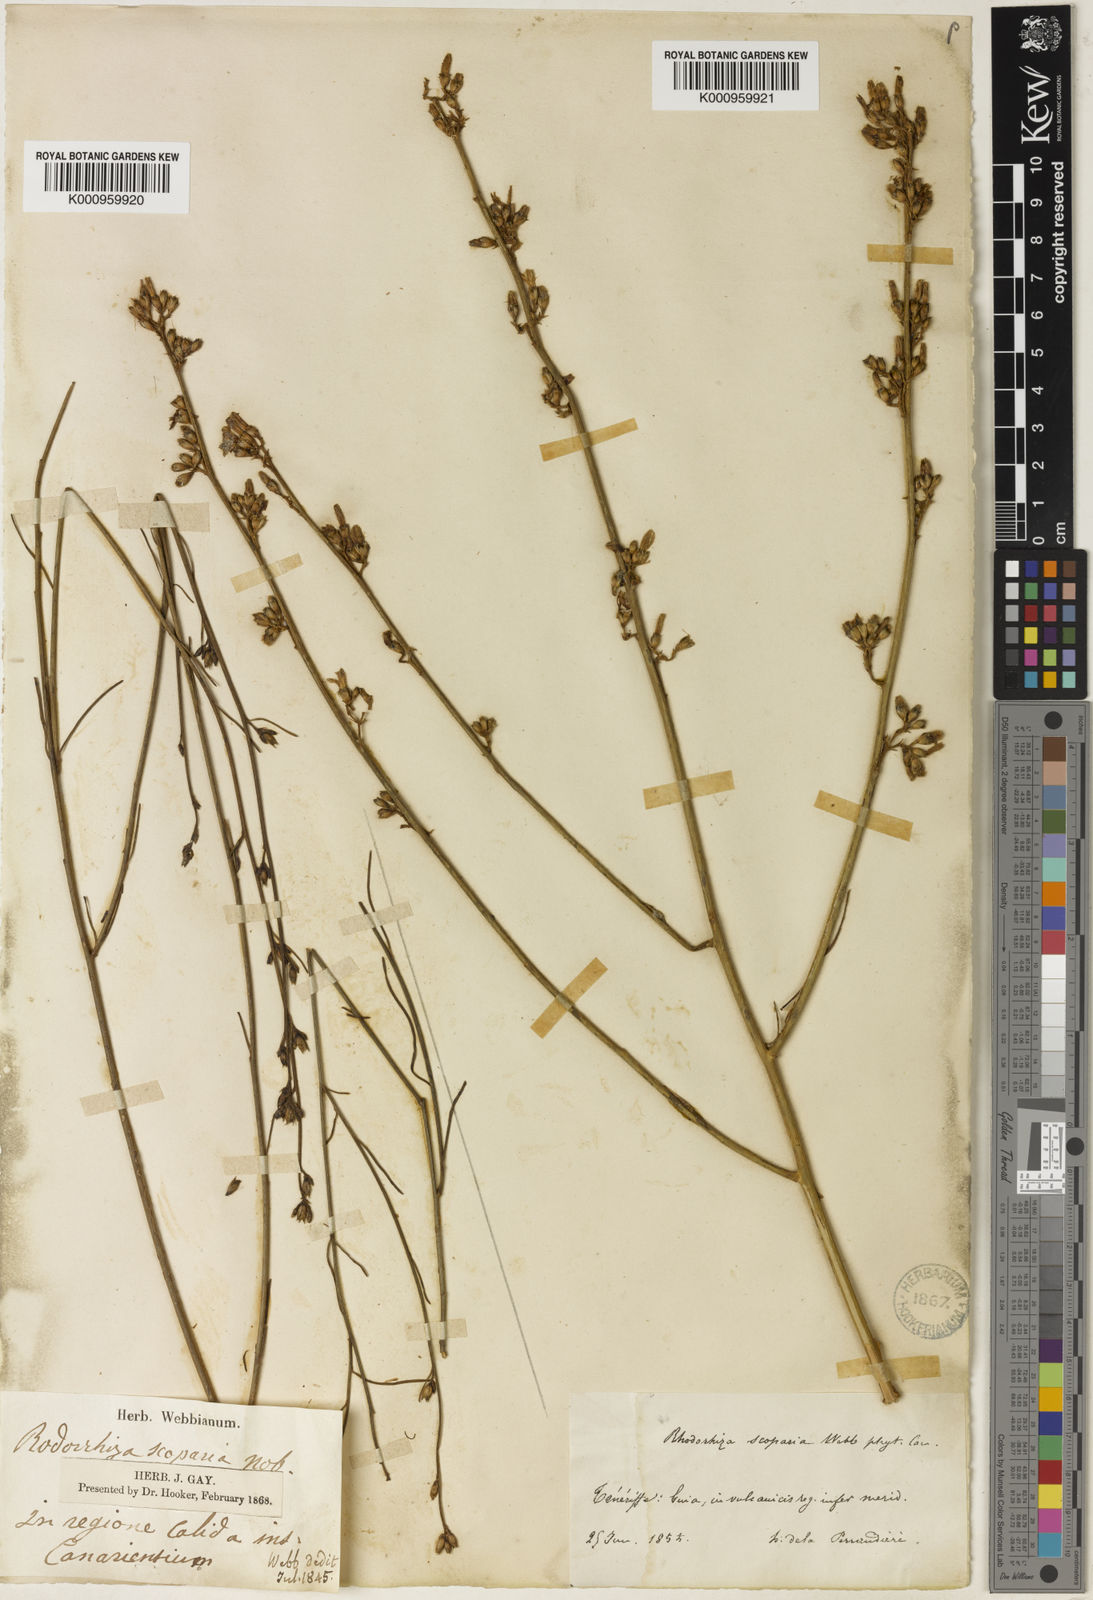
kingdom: Plantae
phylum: Tracheophyta
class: Magnoliopsida
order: Solanales
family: Convolvulaceae
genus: Convolvulus
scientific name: Convolvulus scoparius
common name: Lignum rhodium
